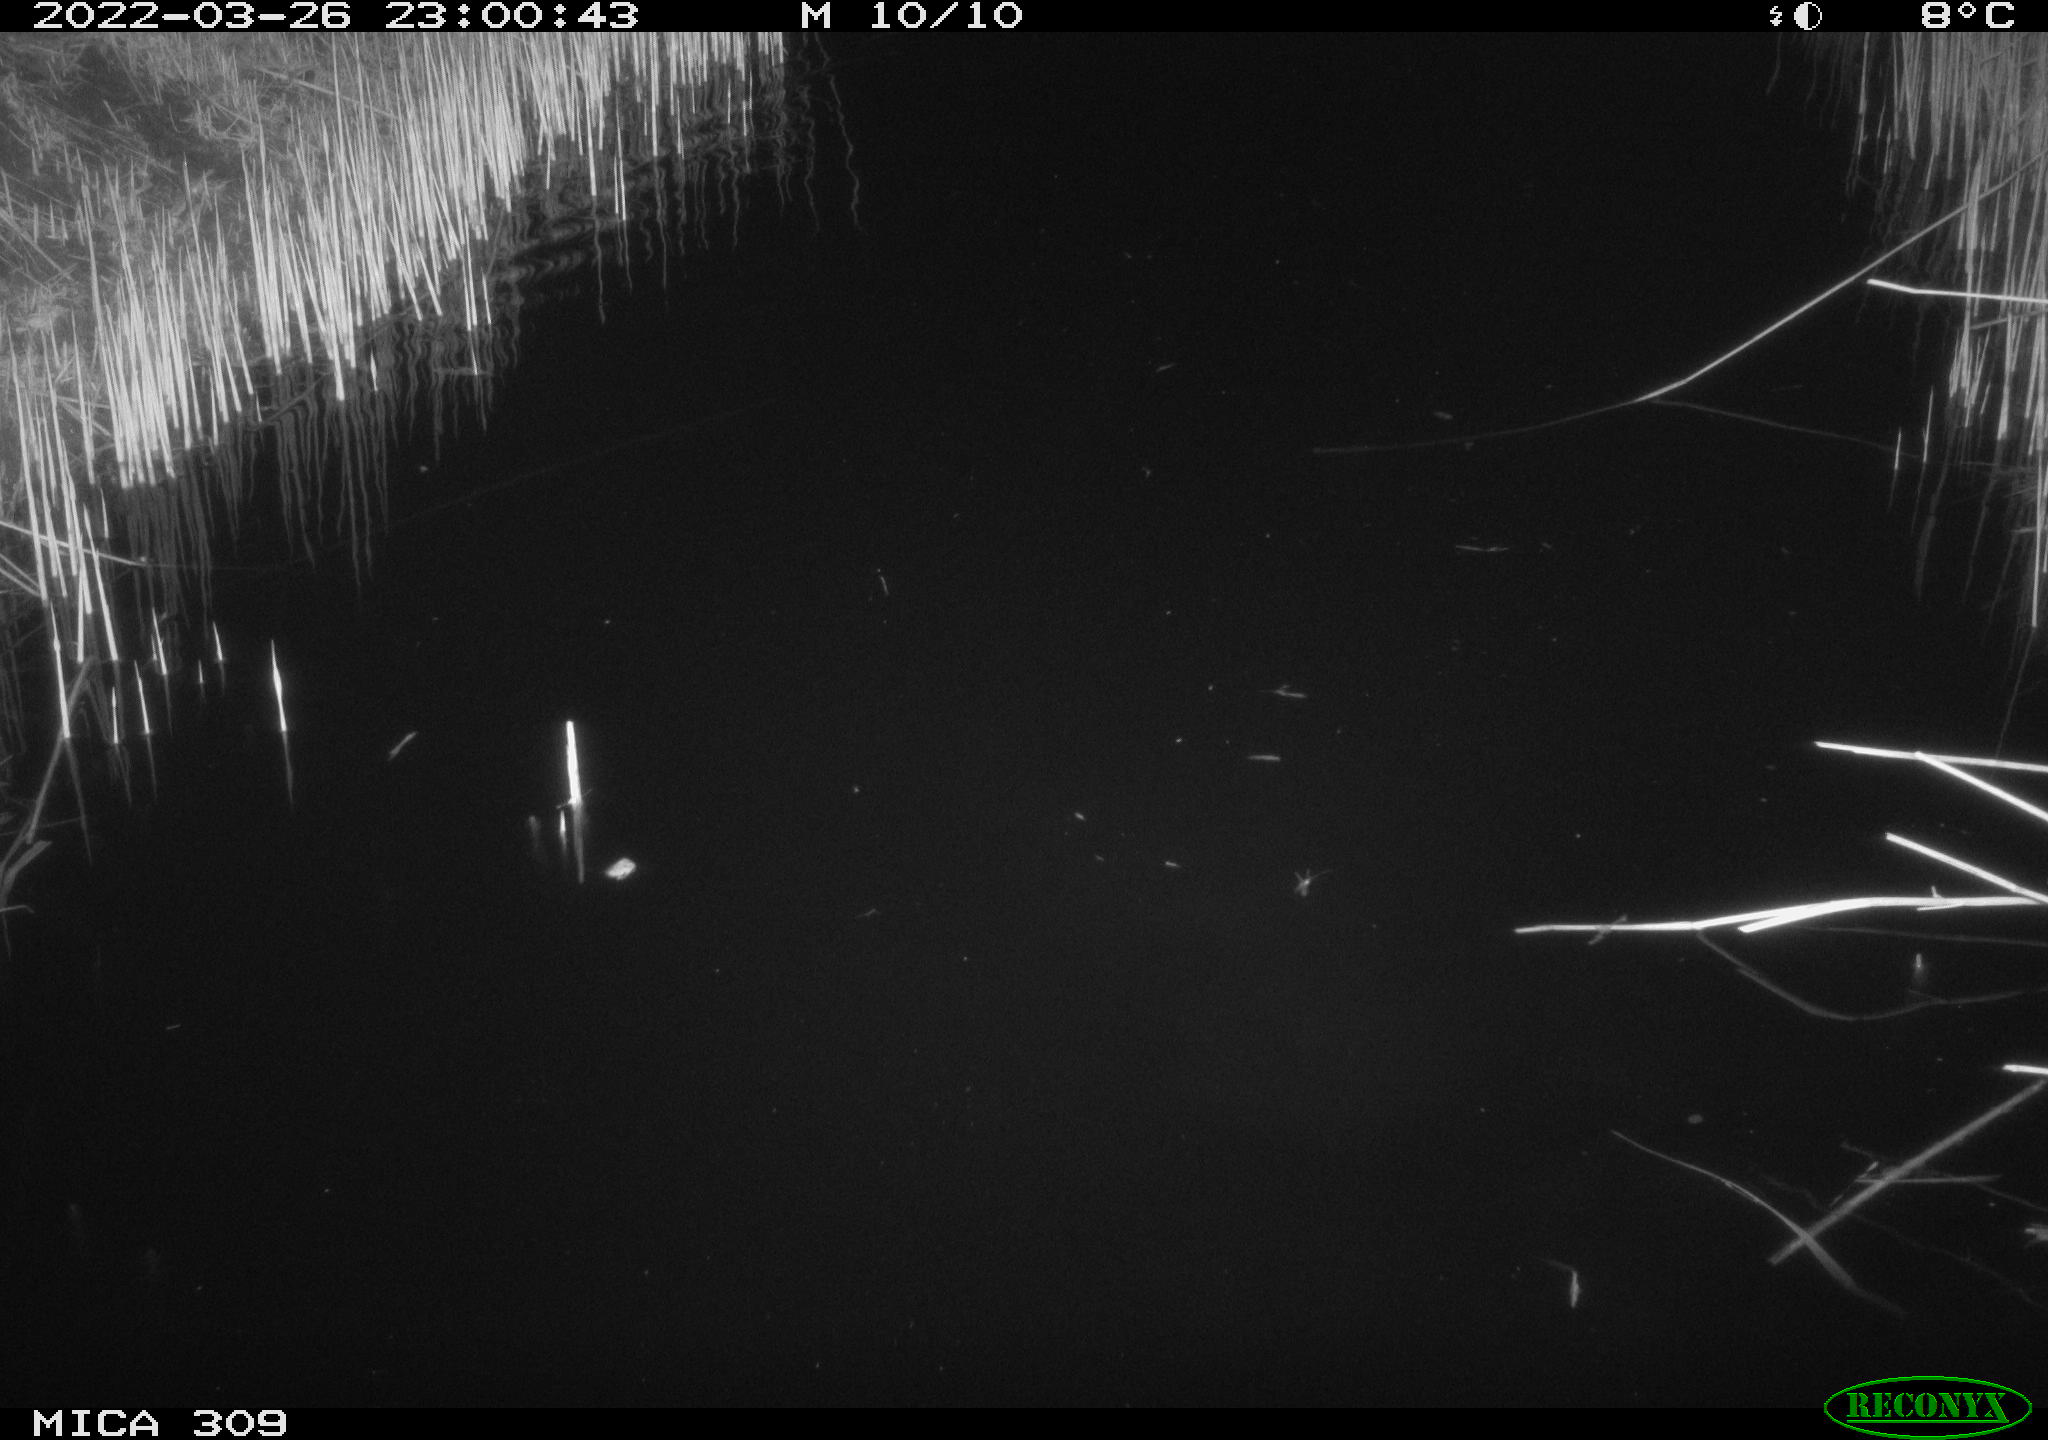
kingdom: Animalia
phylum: Chordata
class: Aves
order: Anseriformes
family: Anatidae
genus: Anas
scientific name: Anas platyrhynchos
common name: Mallard
